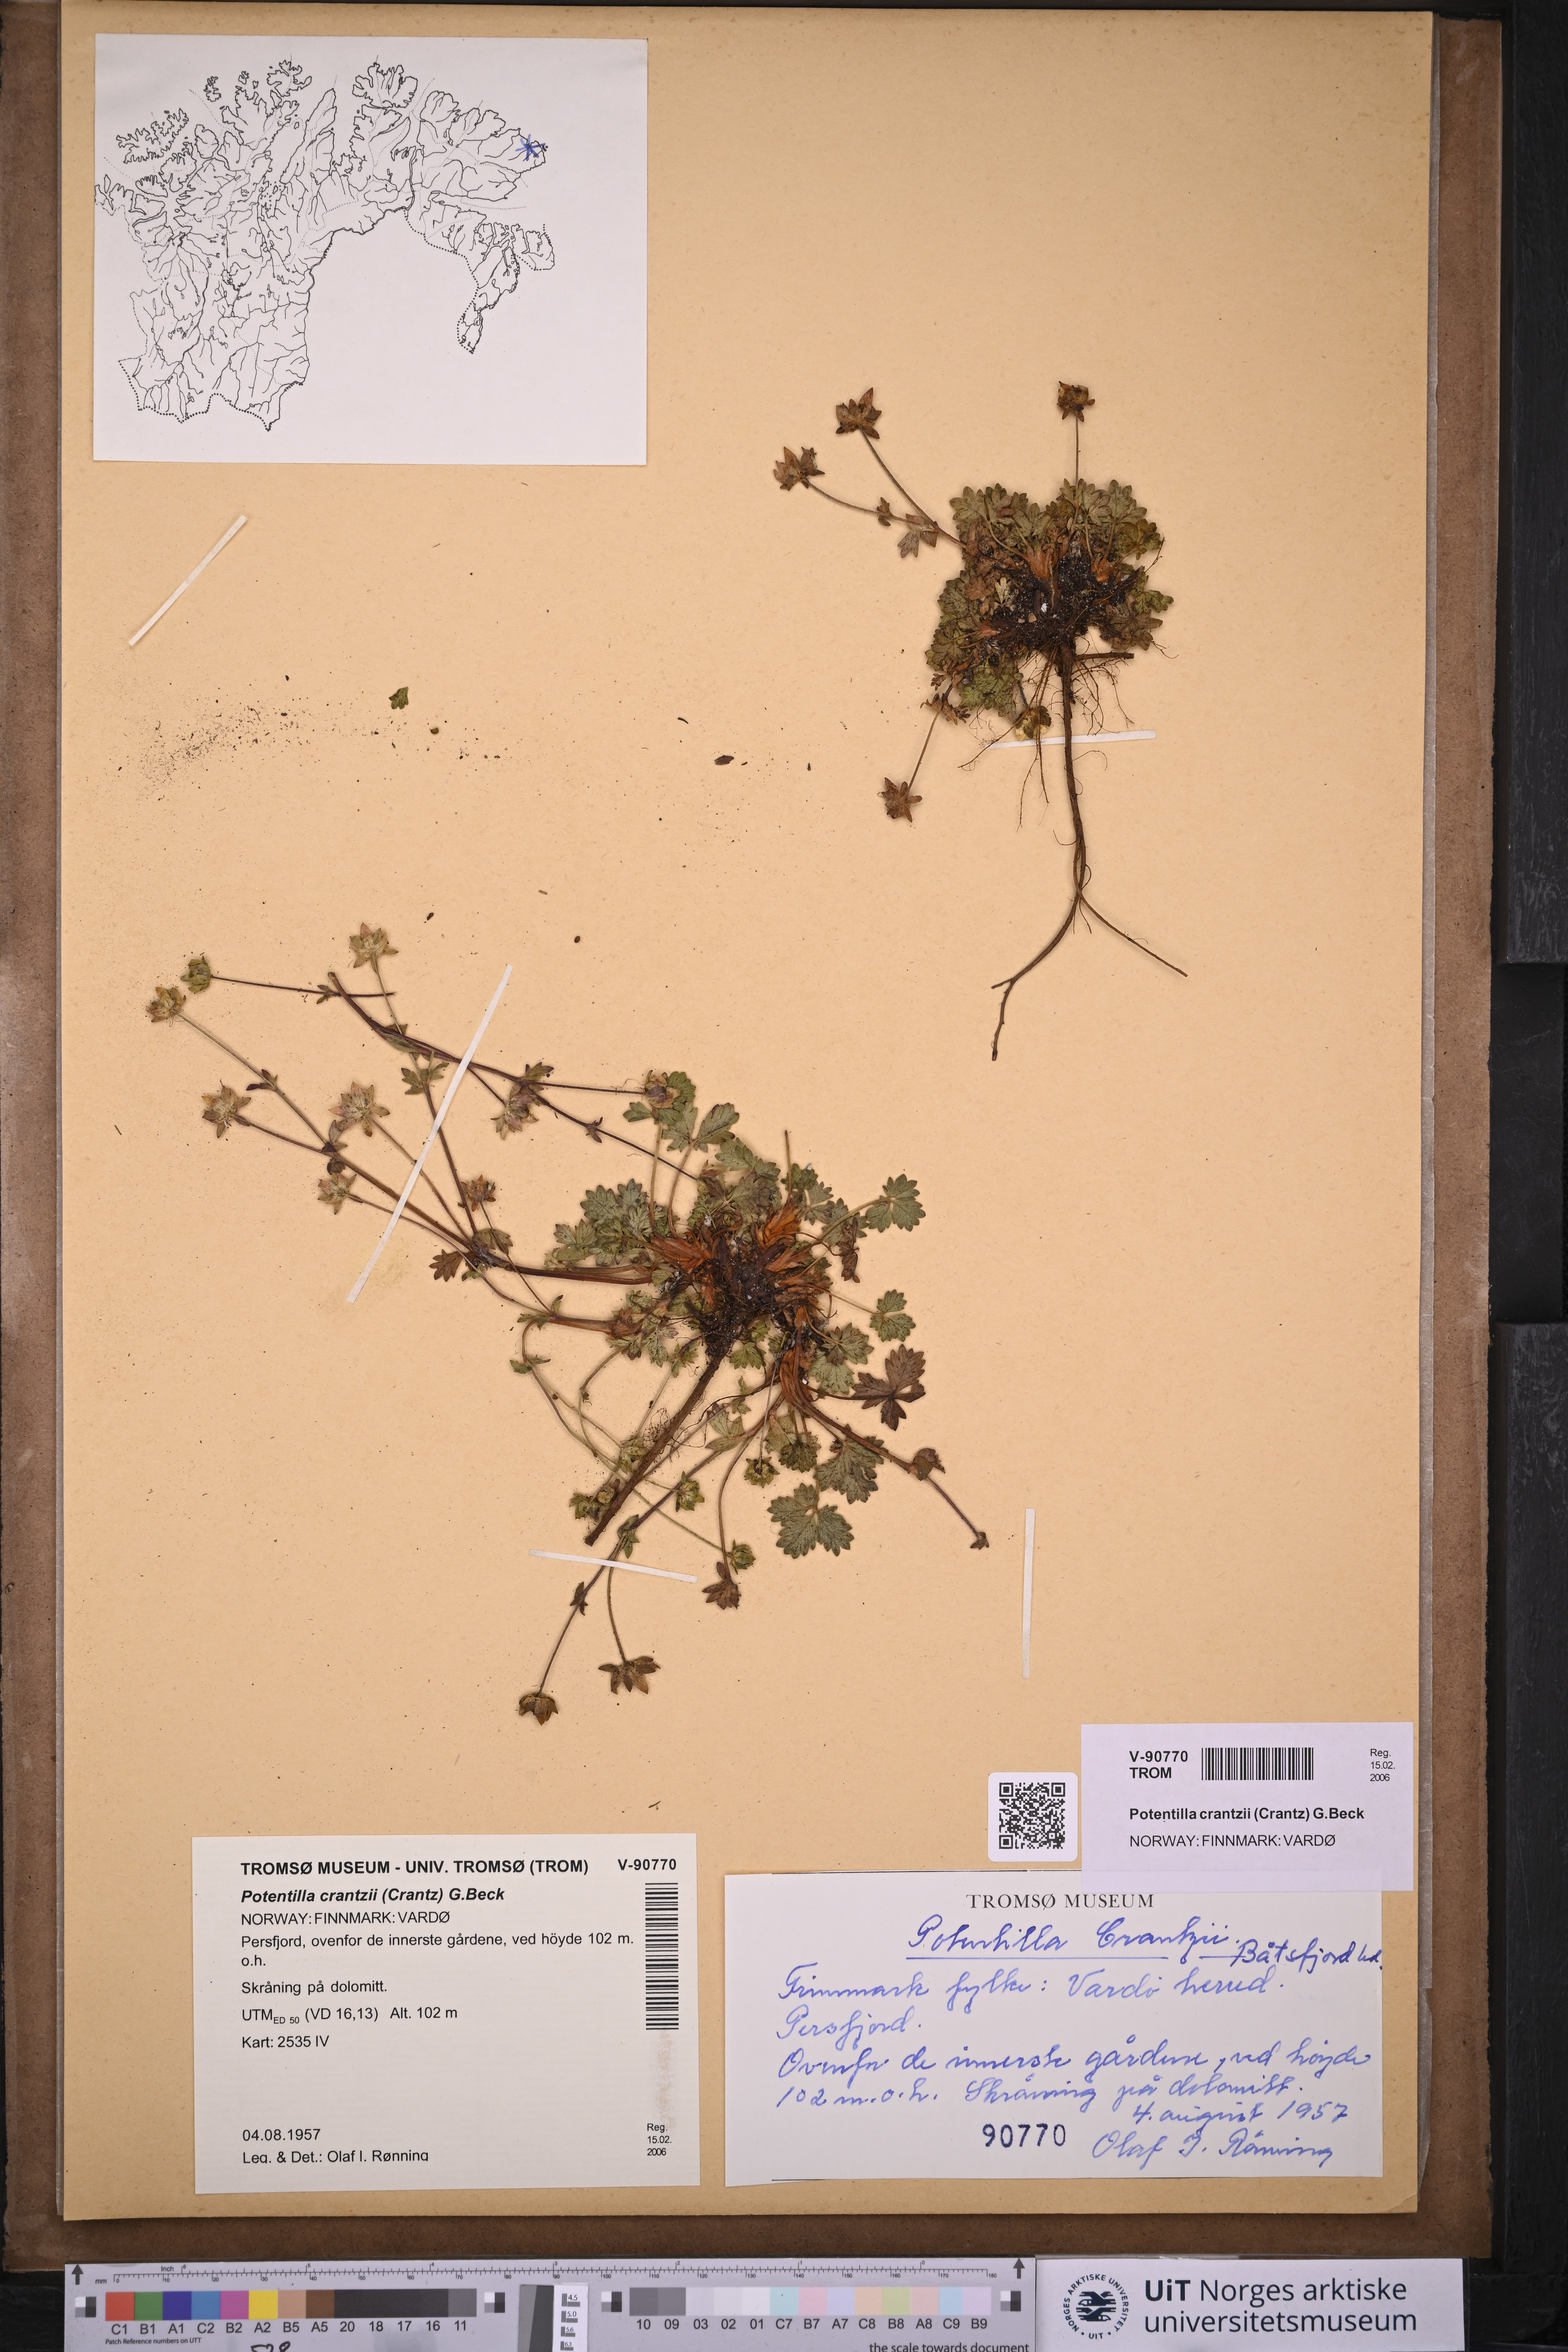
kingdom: Plantae
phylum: Tracheophyta
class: Magnoliopsida
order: Rosales
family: Rosaceae
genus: Potentilla
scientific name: Potentilla crantzii
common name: Alpine cinquefoil
